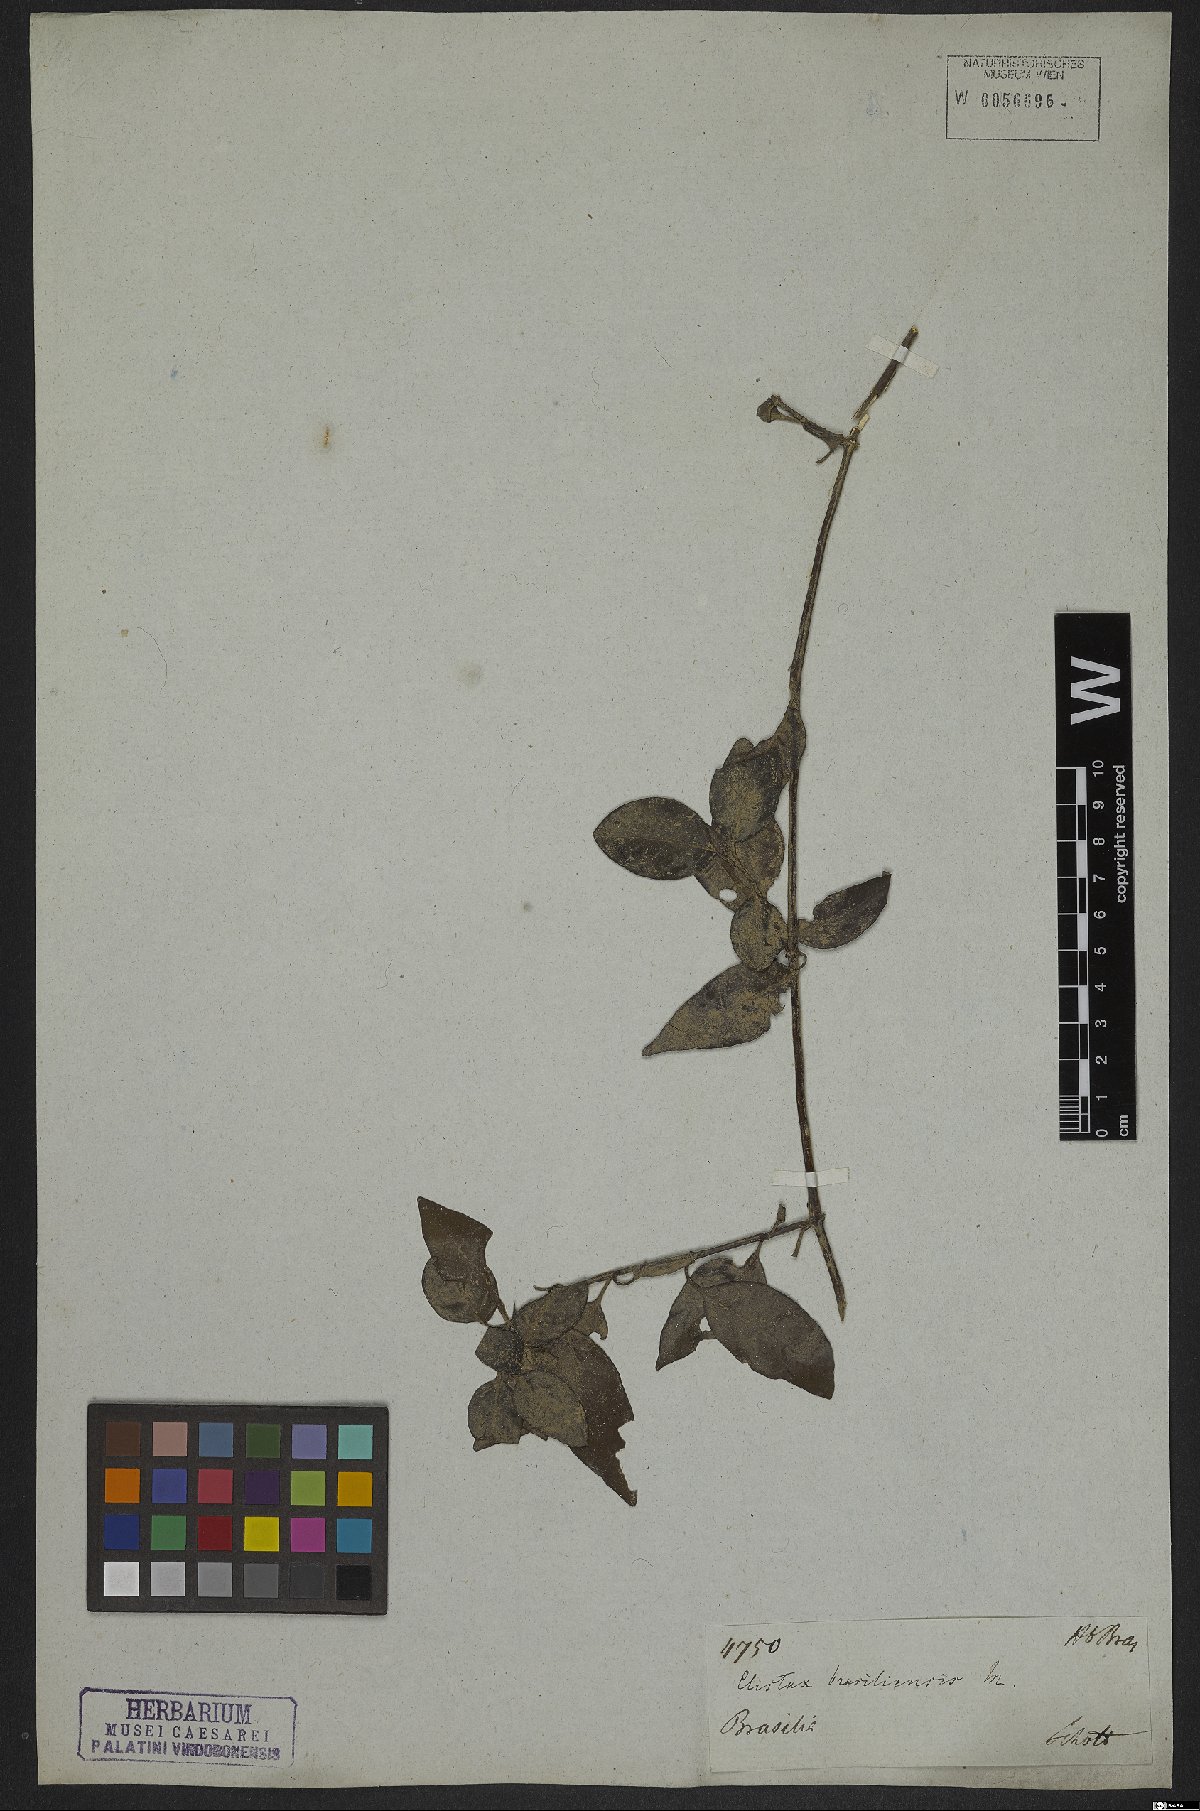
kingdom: Plantae
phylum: Tracheophyta
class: Magnoliopsida
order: Lamiales
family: Acanthaceae
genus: Clistax
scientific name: Clistax brasiliensis
